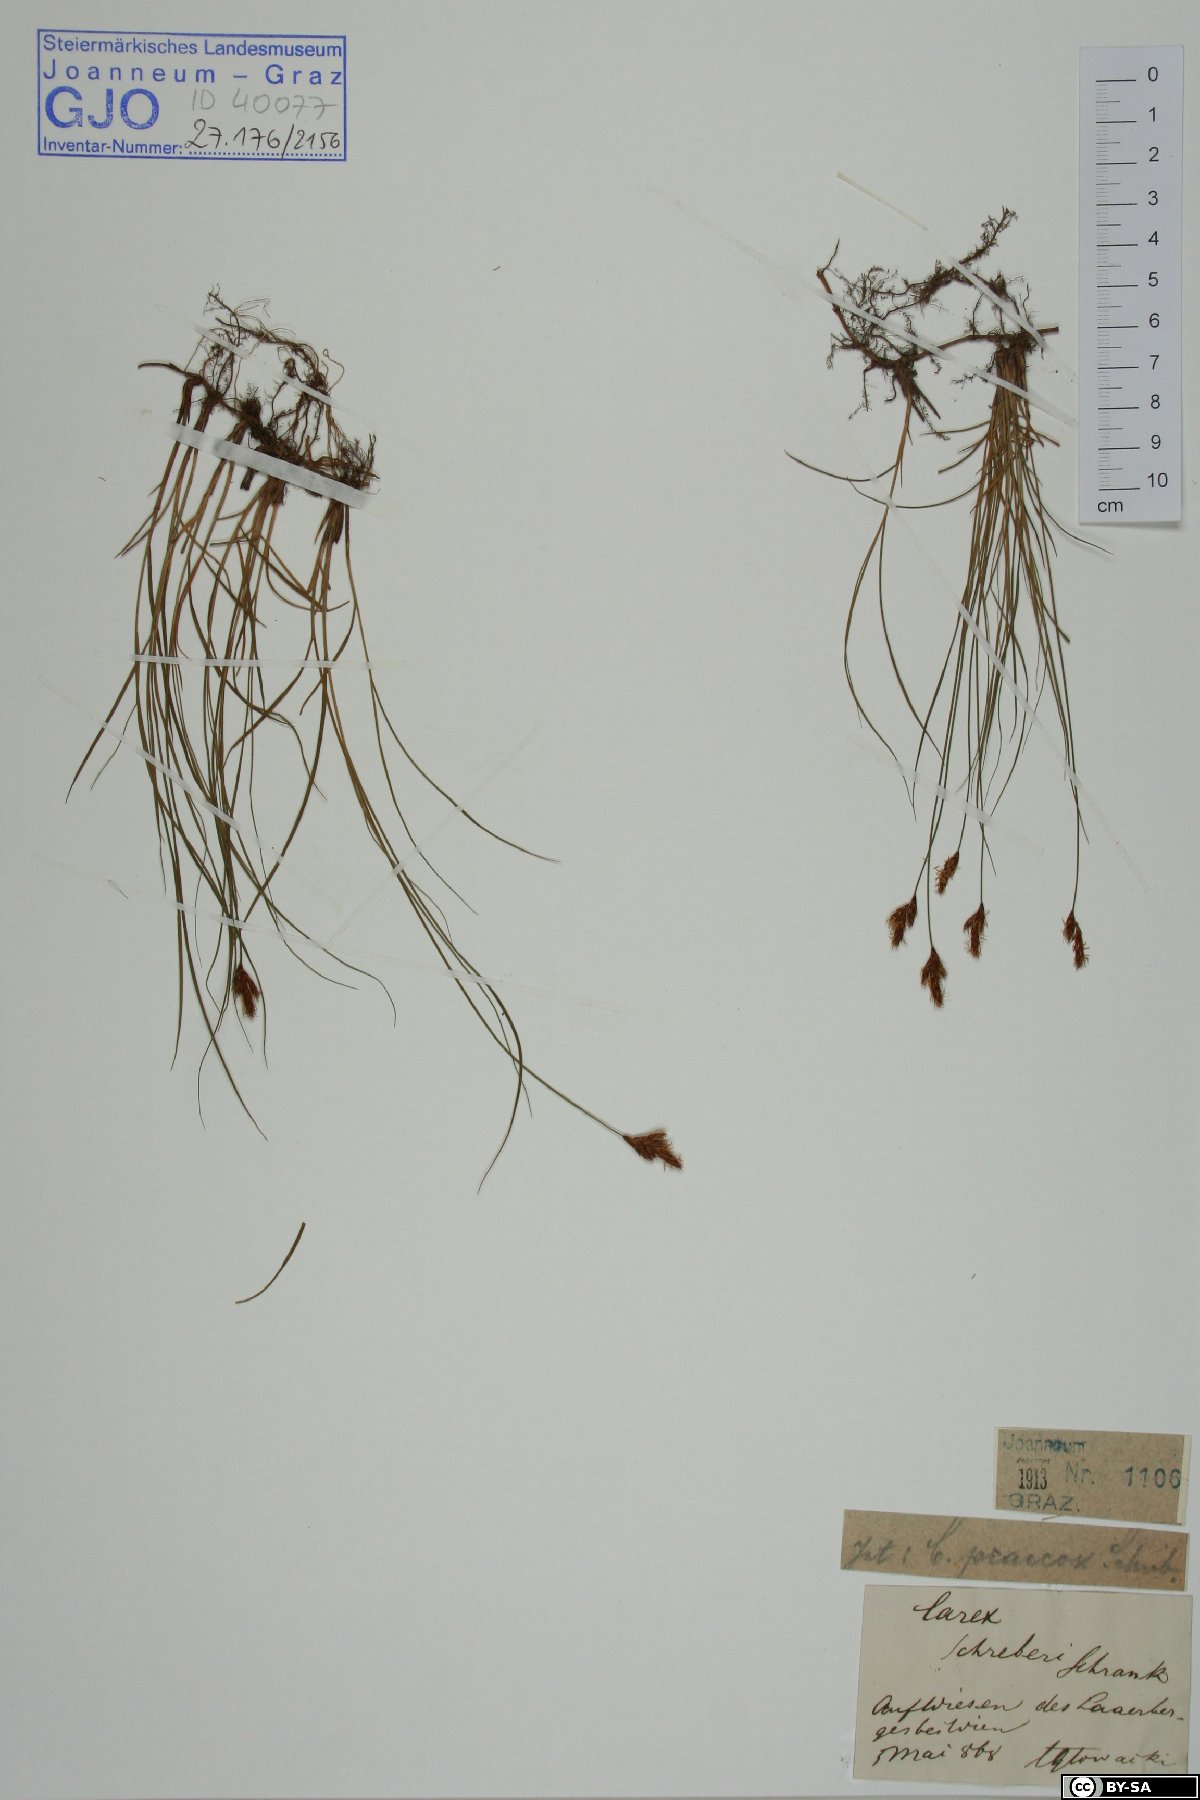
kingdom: Plantae
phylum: Tracheophyta
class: Liliopsida
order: Poales
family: Cyperaceae
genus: Carex
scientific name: Carex praecox
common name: Early sedge
